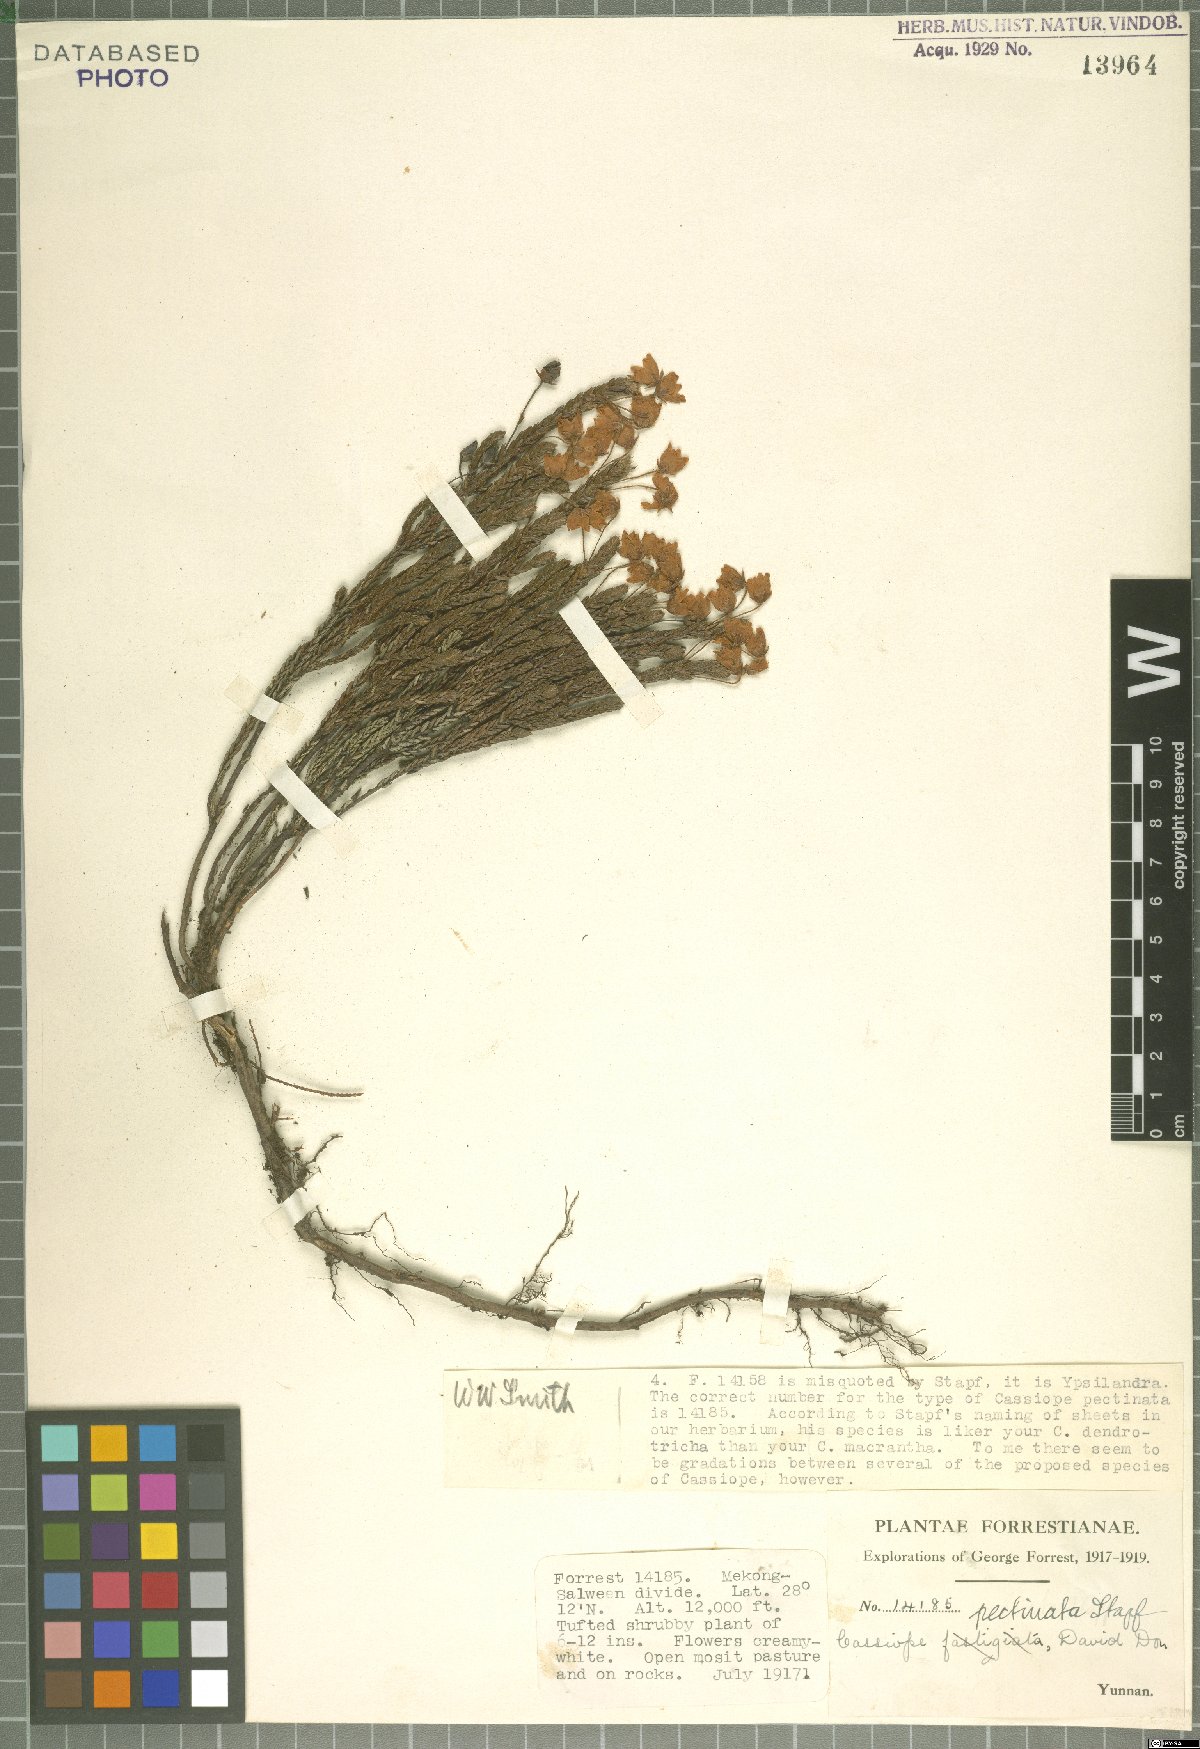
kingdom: Plantae
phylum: Tracheophyta
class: Magnoliopsida
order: Ericales
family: Ericaceae
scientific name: Ericaceae
